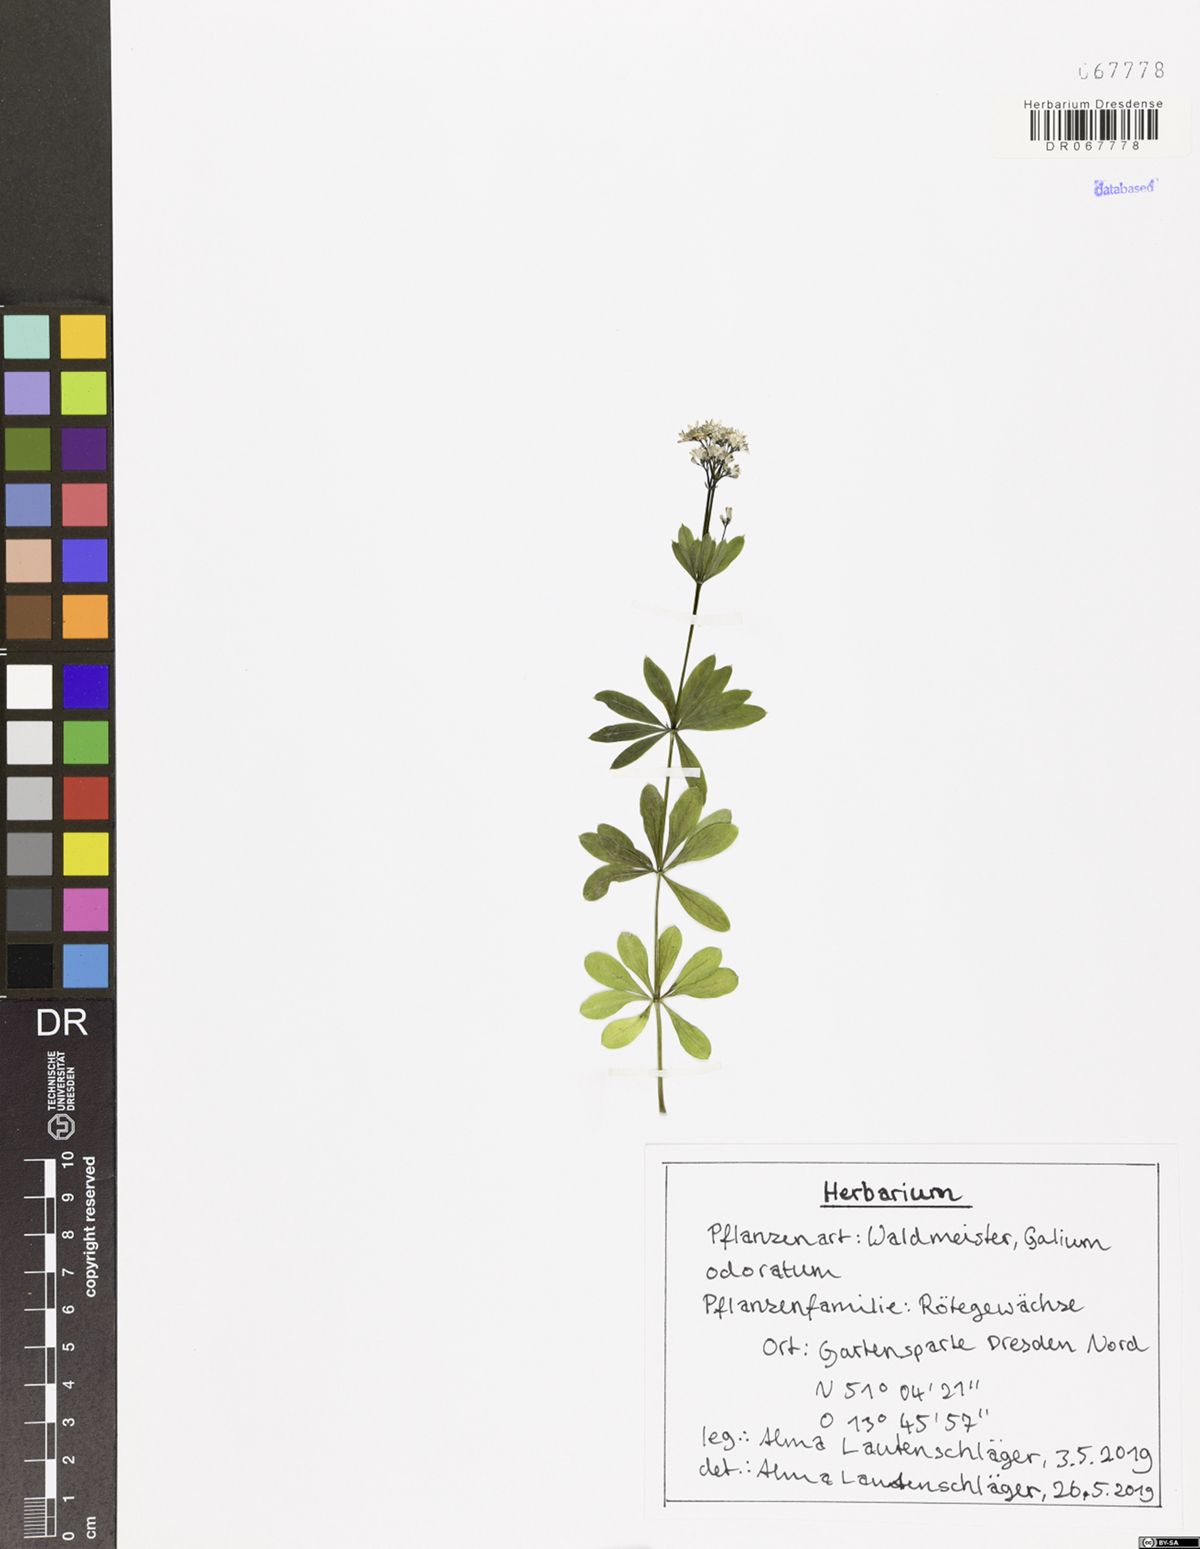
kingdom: Plantae
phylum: Tracheophyta
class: Magnoliopsida
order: Gentianales
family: Rubiaceae
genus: Galium
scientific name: Galium odoratum
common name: Sweet woodruff
